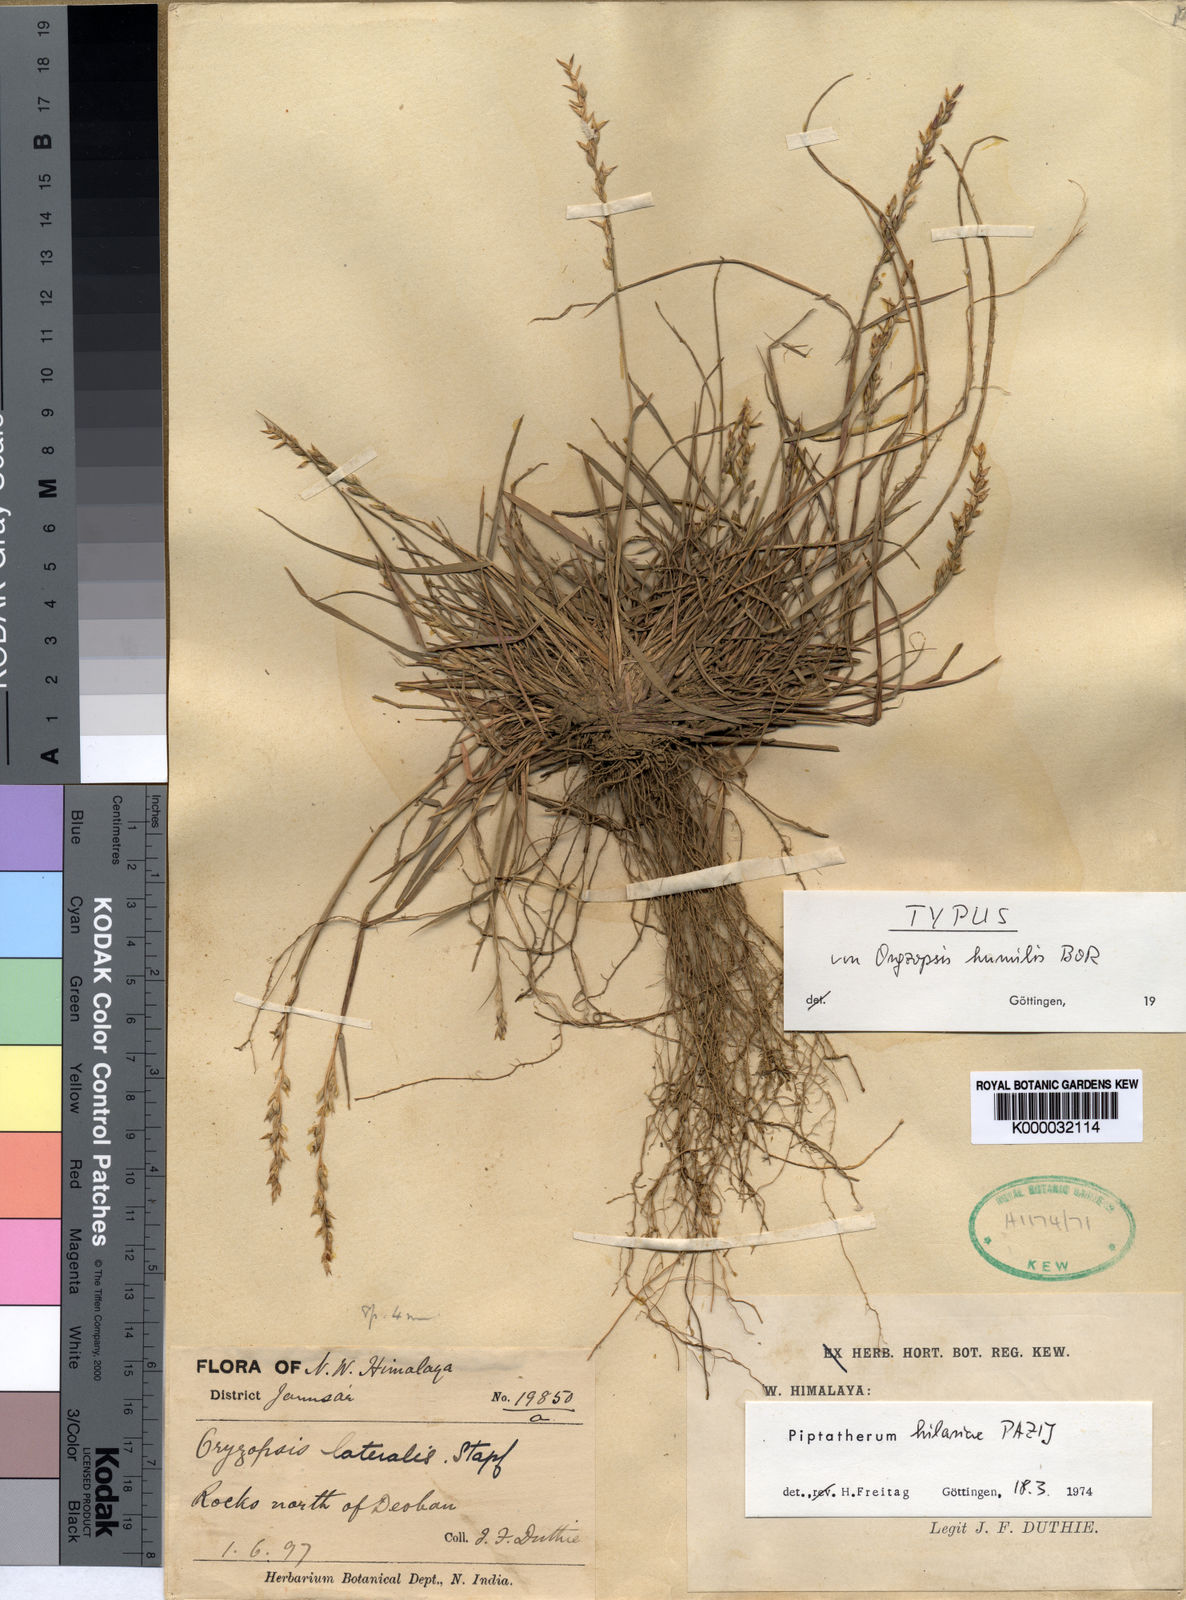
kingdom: Plantae
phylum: Tracheophyta
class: Liliopsida
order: Poales
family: Poaceae
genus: Piptatherum
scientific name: Piptatherum hilariae
